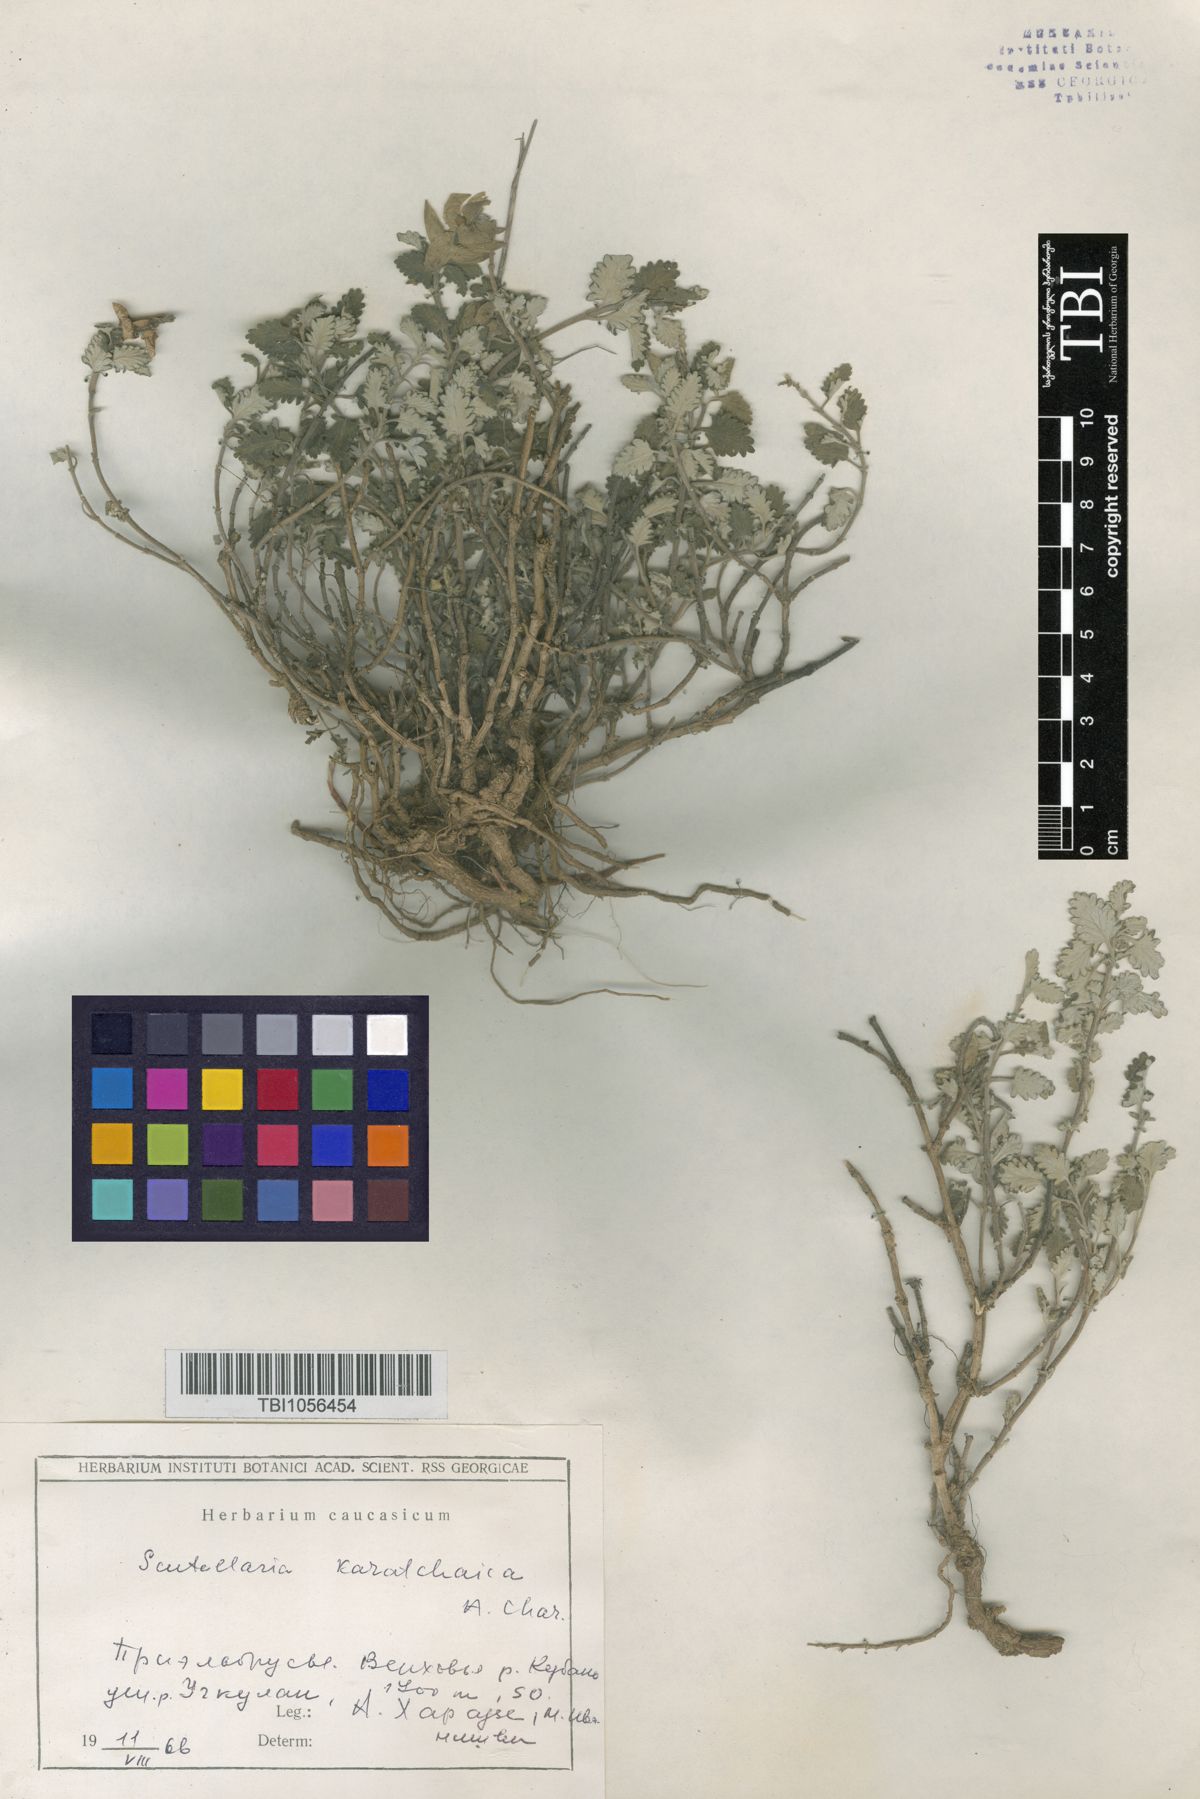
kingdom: Plantae
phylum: Tracheophyta
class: Magnoliopsida
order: Lamiales
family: Lamiaceae
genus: Scutellaria
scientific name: Scutellaria orientalis
